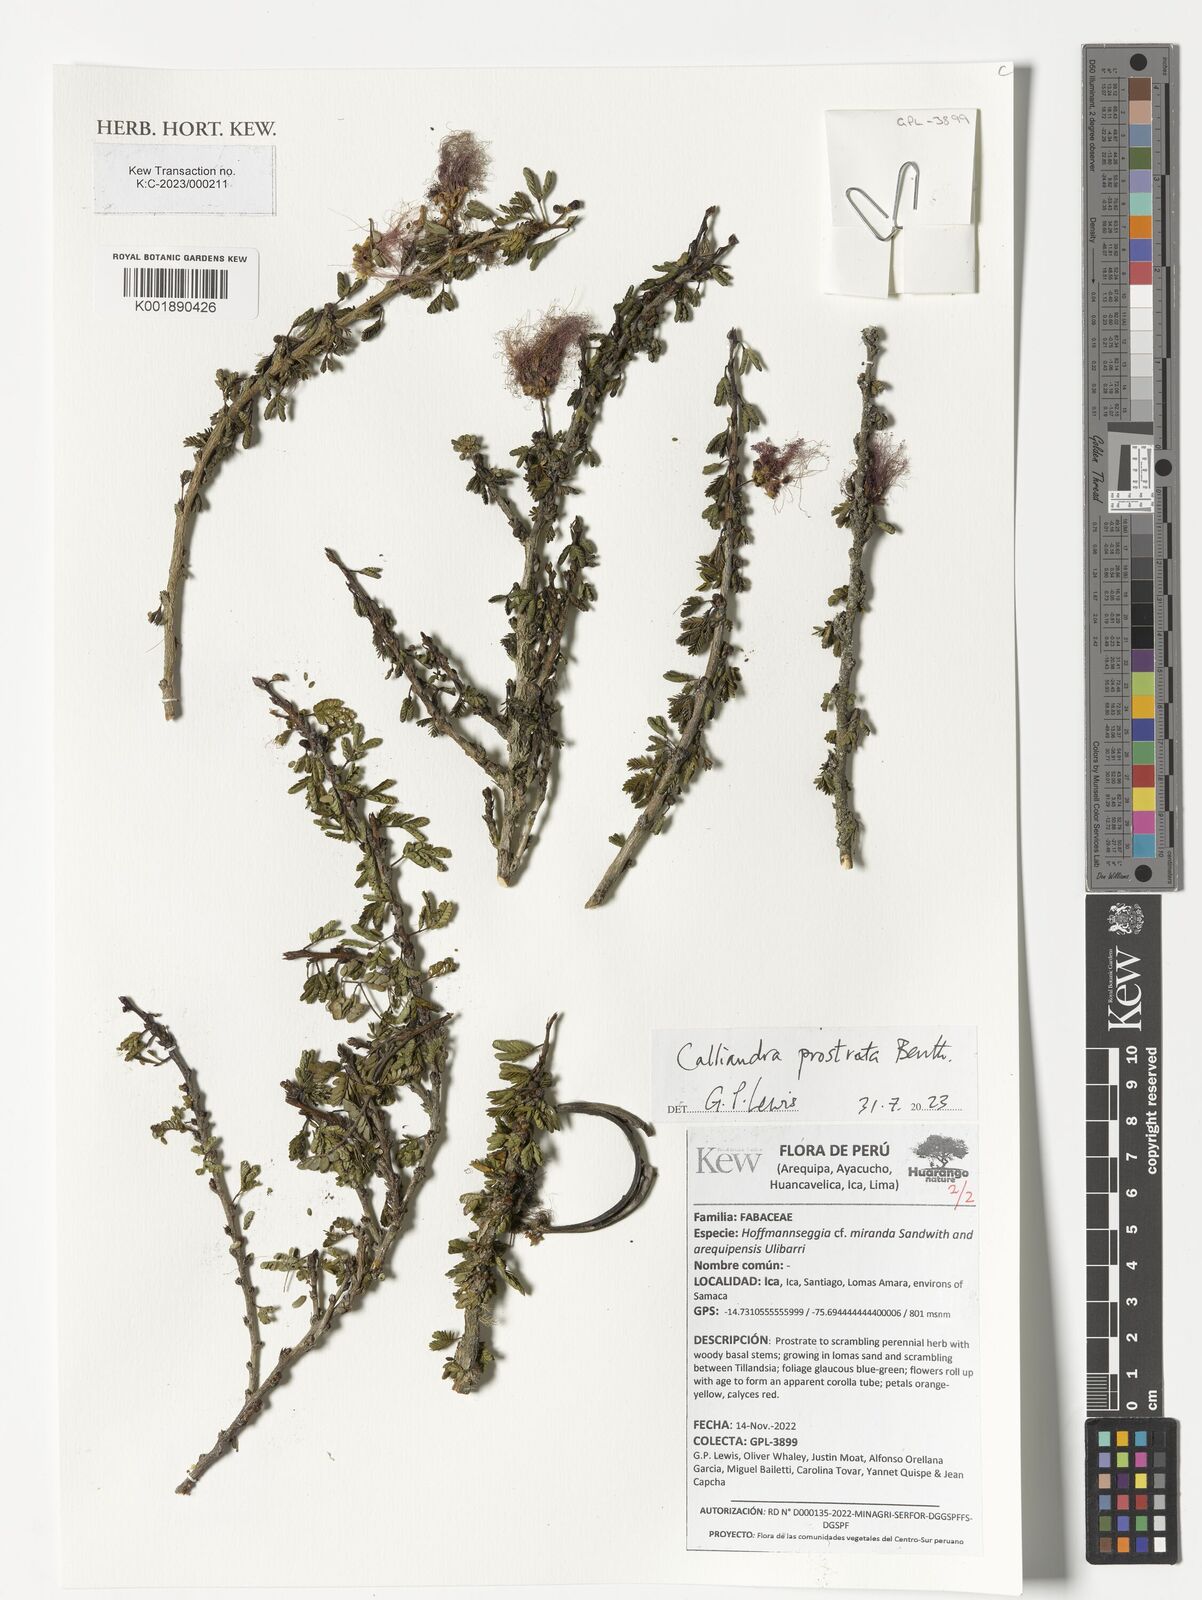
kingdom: Plantae
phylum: Tracheophyta
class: Magnoliopsida
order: Fabales
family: Fabaceae
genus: Calliandra
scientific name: Calliandra taxifolia
